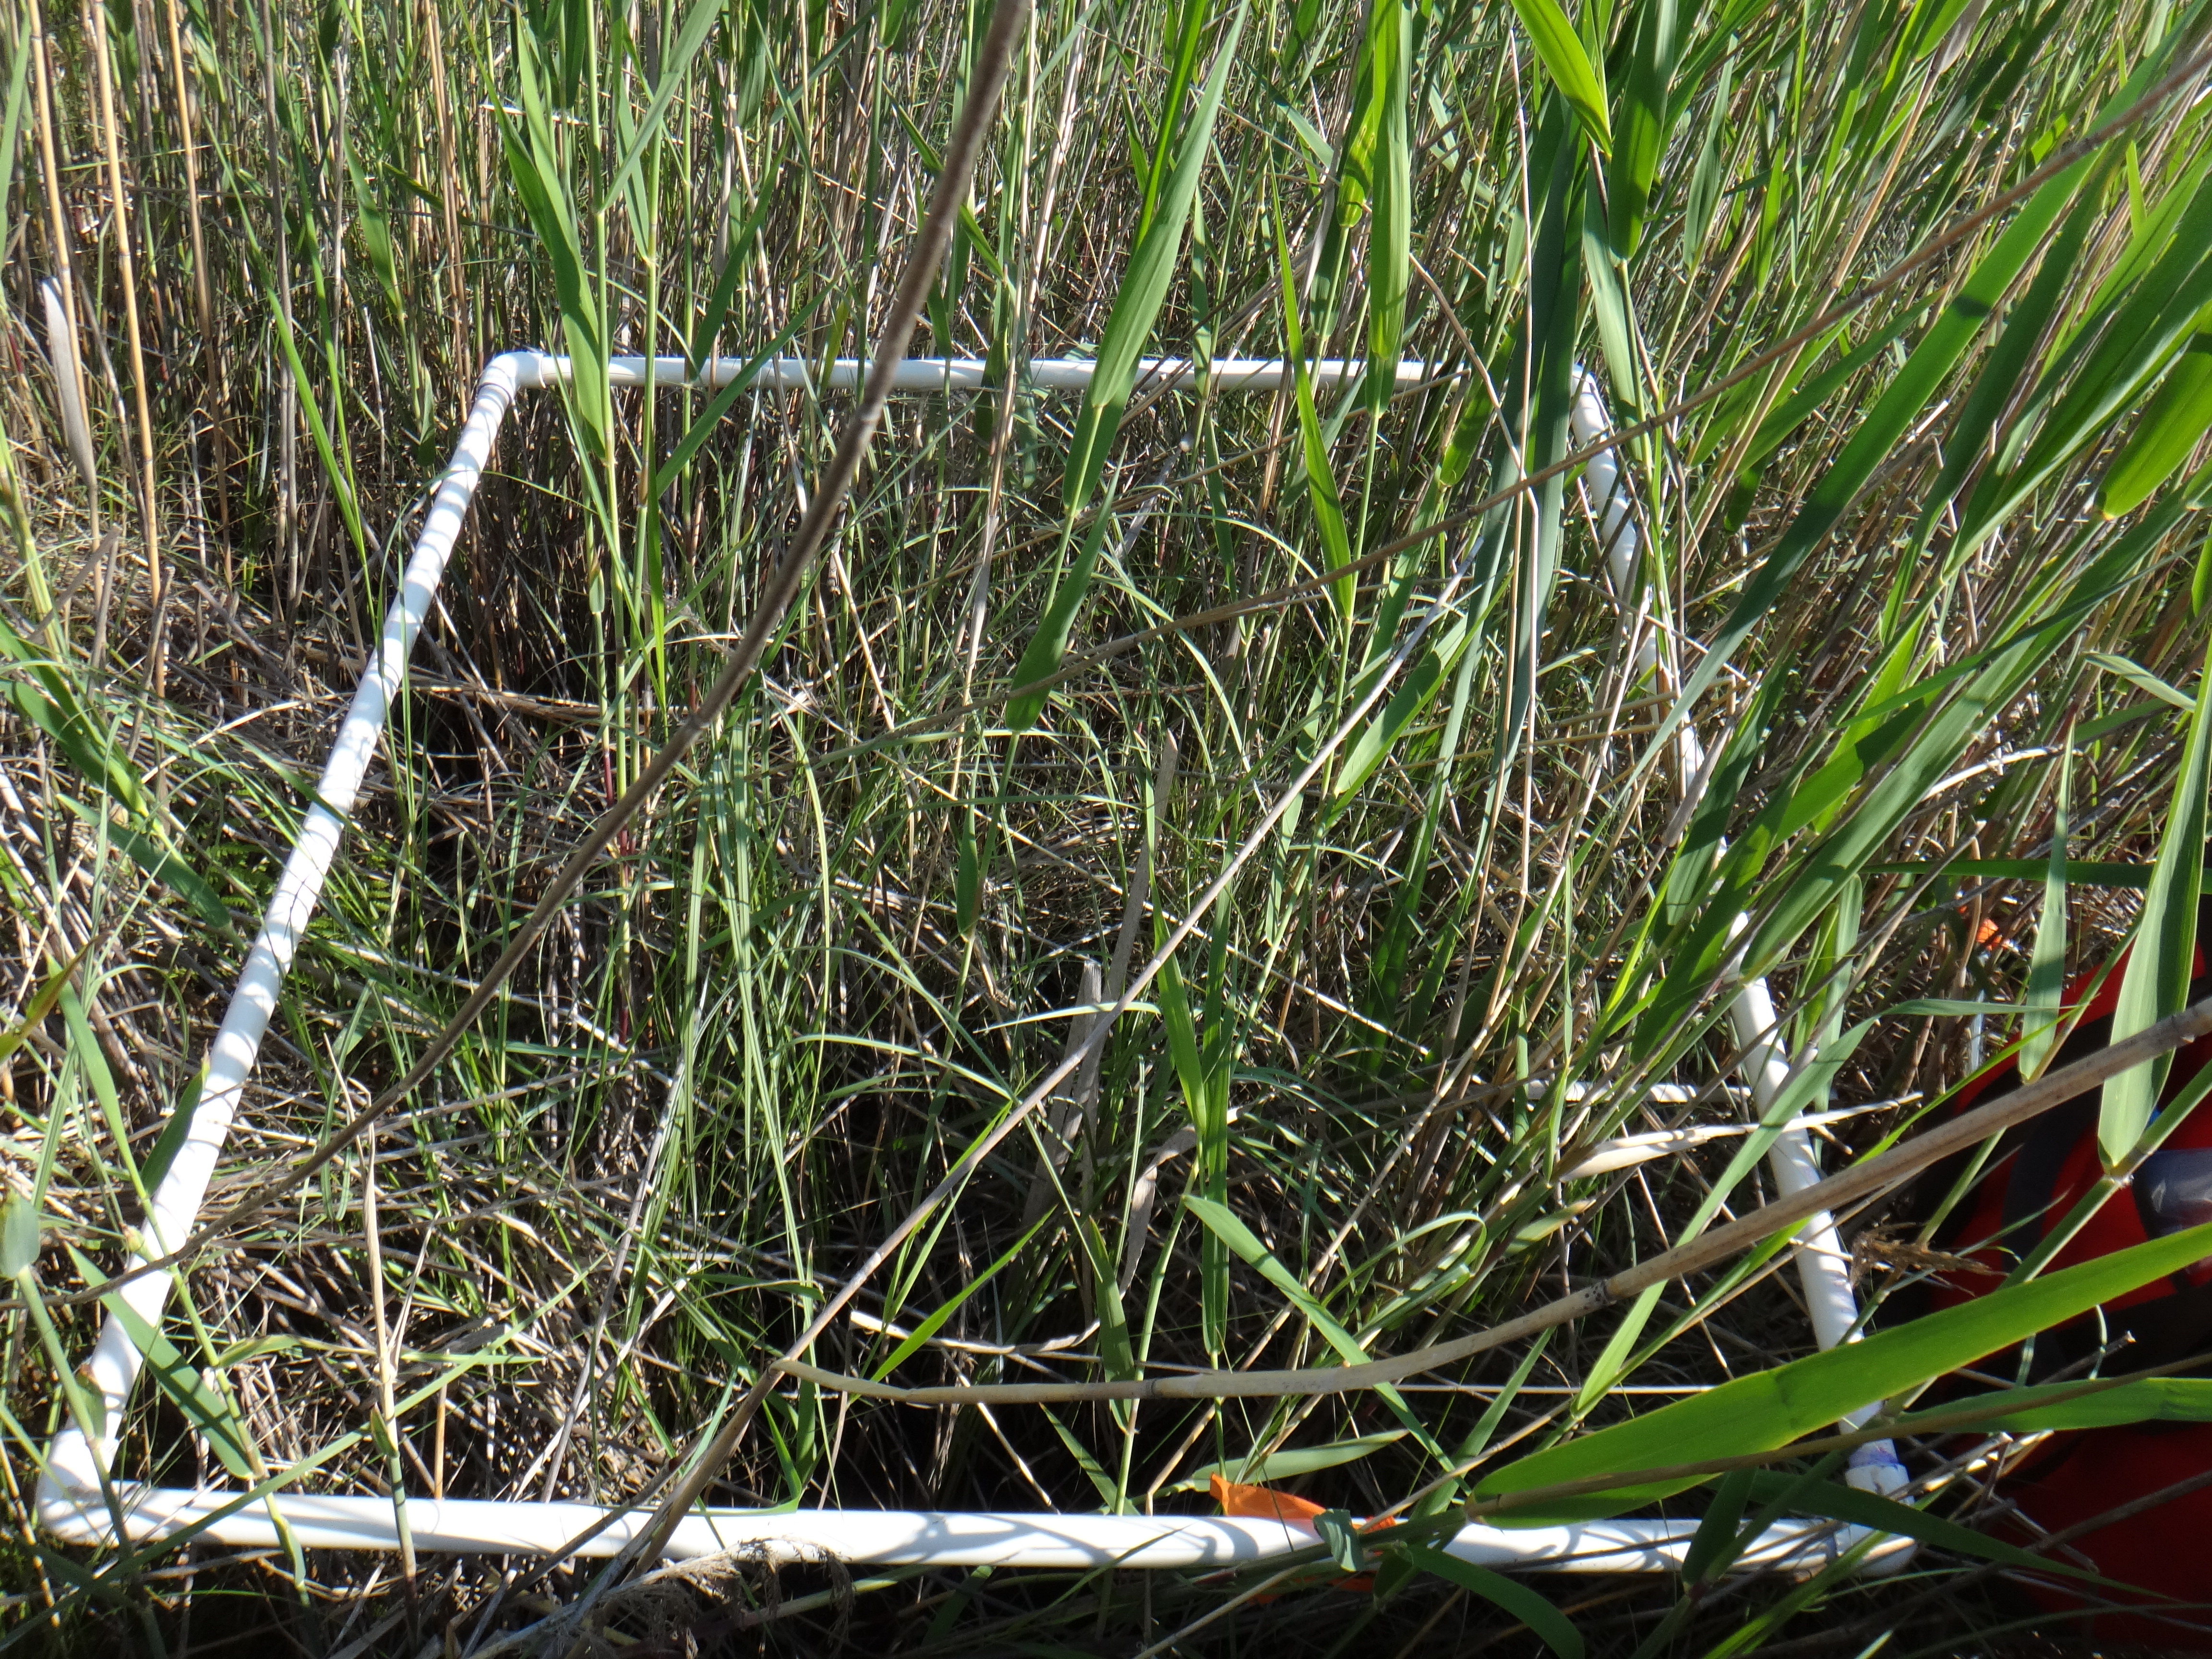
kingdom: Plantae
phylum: Tracheophyta
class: Polypodiopsida
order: Polypodiales
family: Thelypteridaceae
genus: Thelypteris
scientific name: Thelypteris palustris
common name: Marsh fern
